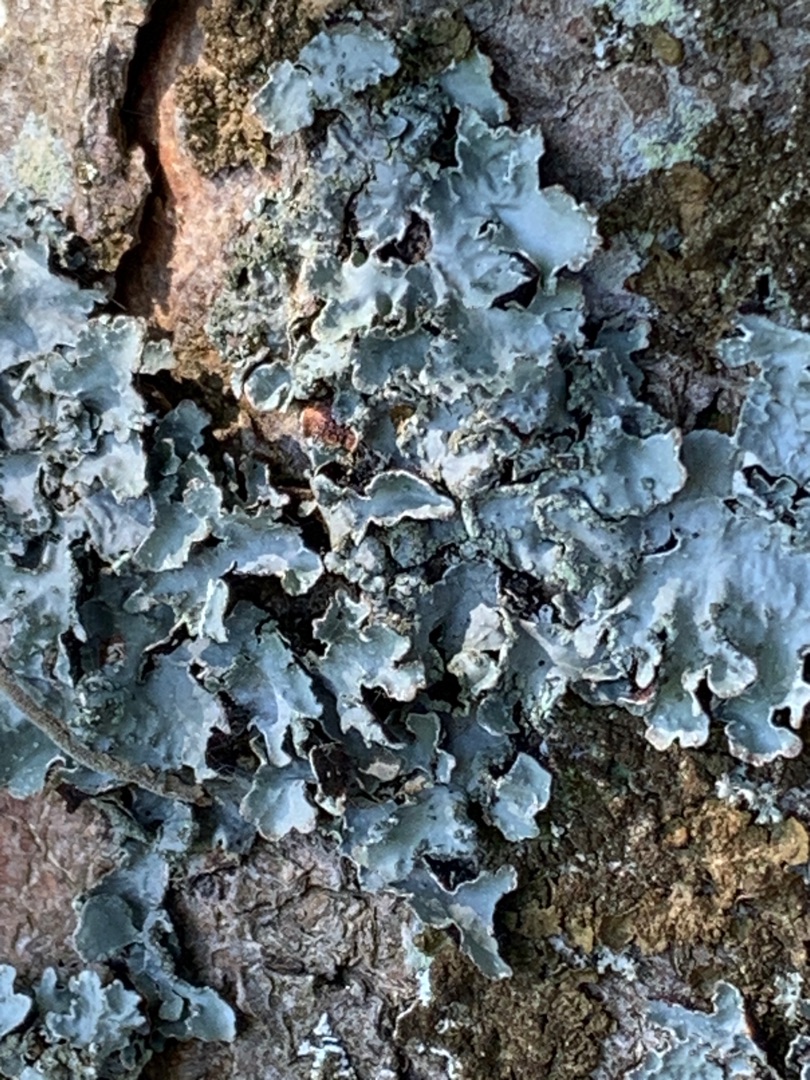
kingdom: Fungi
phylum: Ascomycota
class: Lecanoromycetes
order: Lecanorales
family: Parmeliaceae
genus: Parmelia
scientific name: Parmelia sulcata
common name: Rynket skållav
